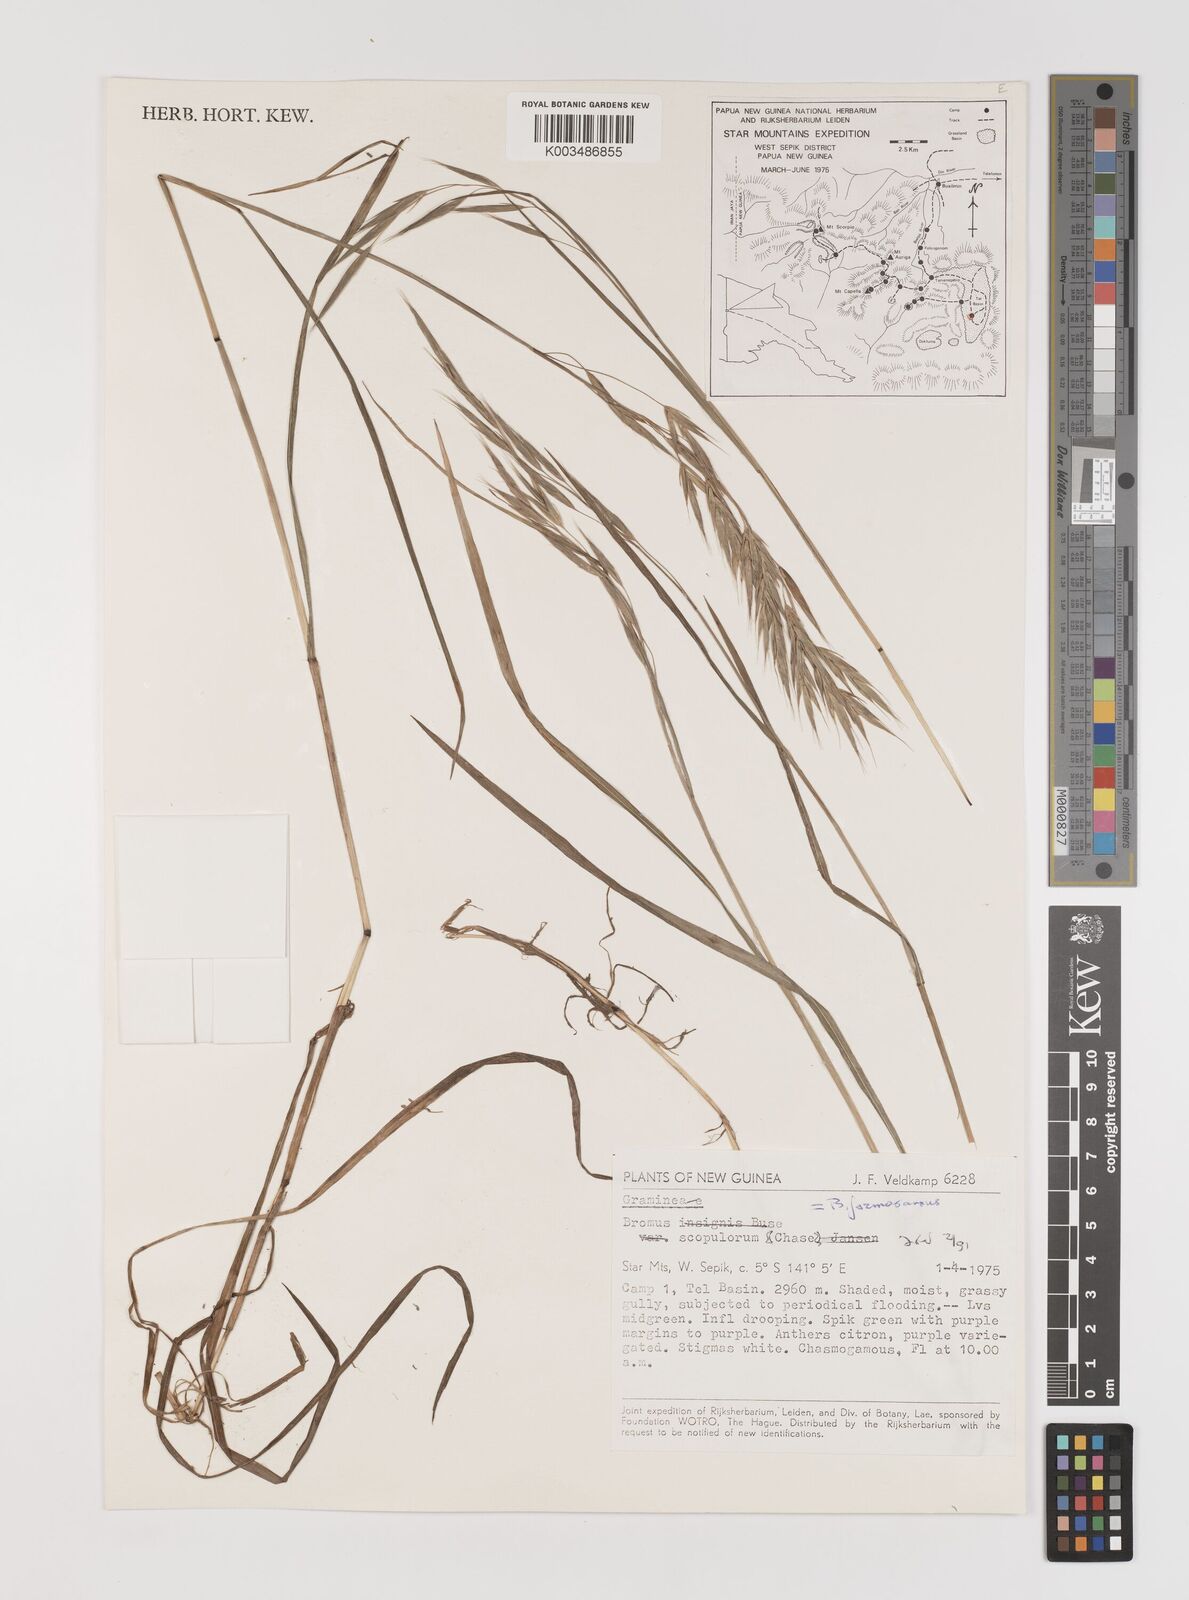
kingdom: Plantae
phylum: Tracheophyta
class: Liliopsida
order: Poales
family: Poaceae
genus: Bromus
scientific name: Bromus formosanus
